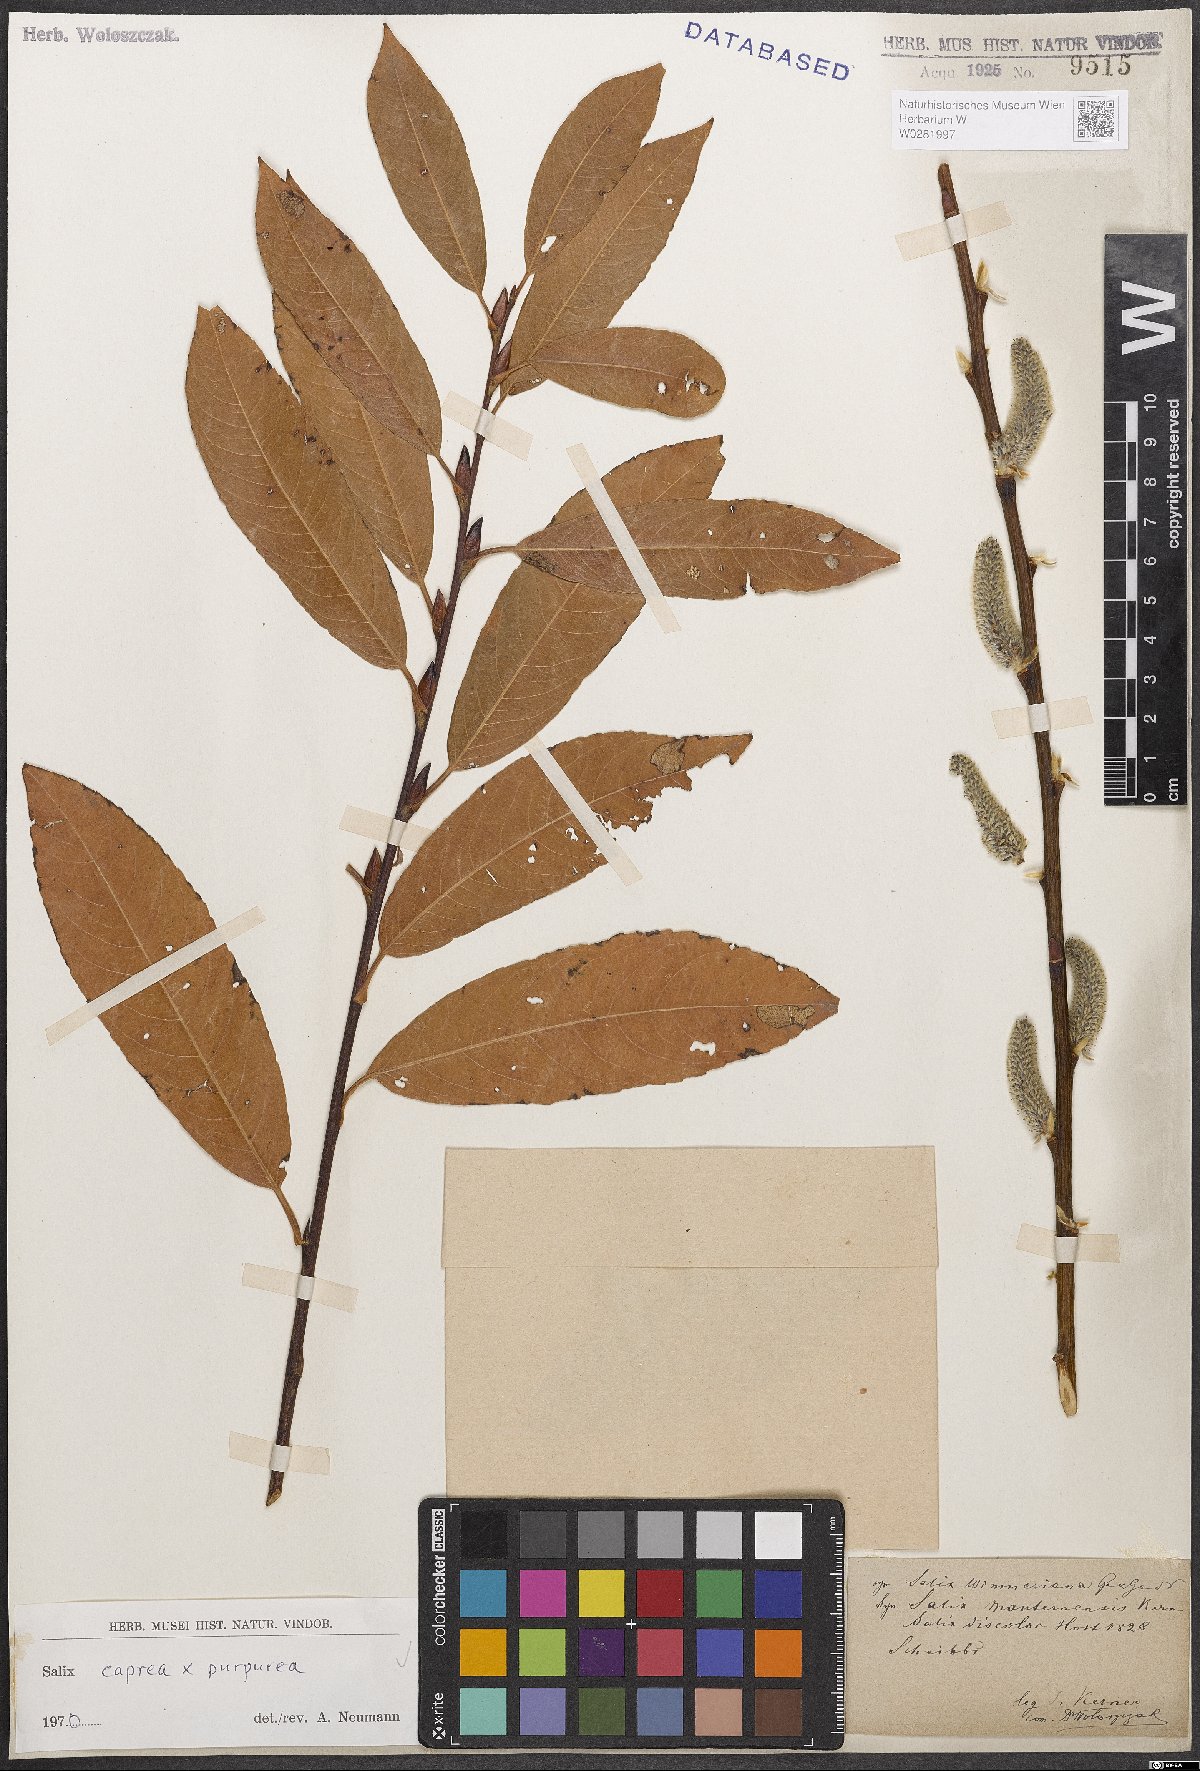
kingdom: Plantae
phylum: Tracheophyta
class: Magnoliopsida
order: Malpighiales
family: Salicaceae
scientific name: Salicaceae
